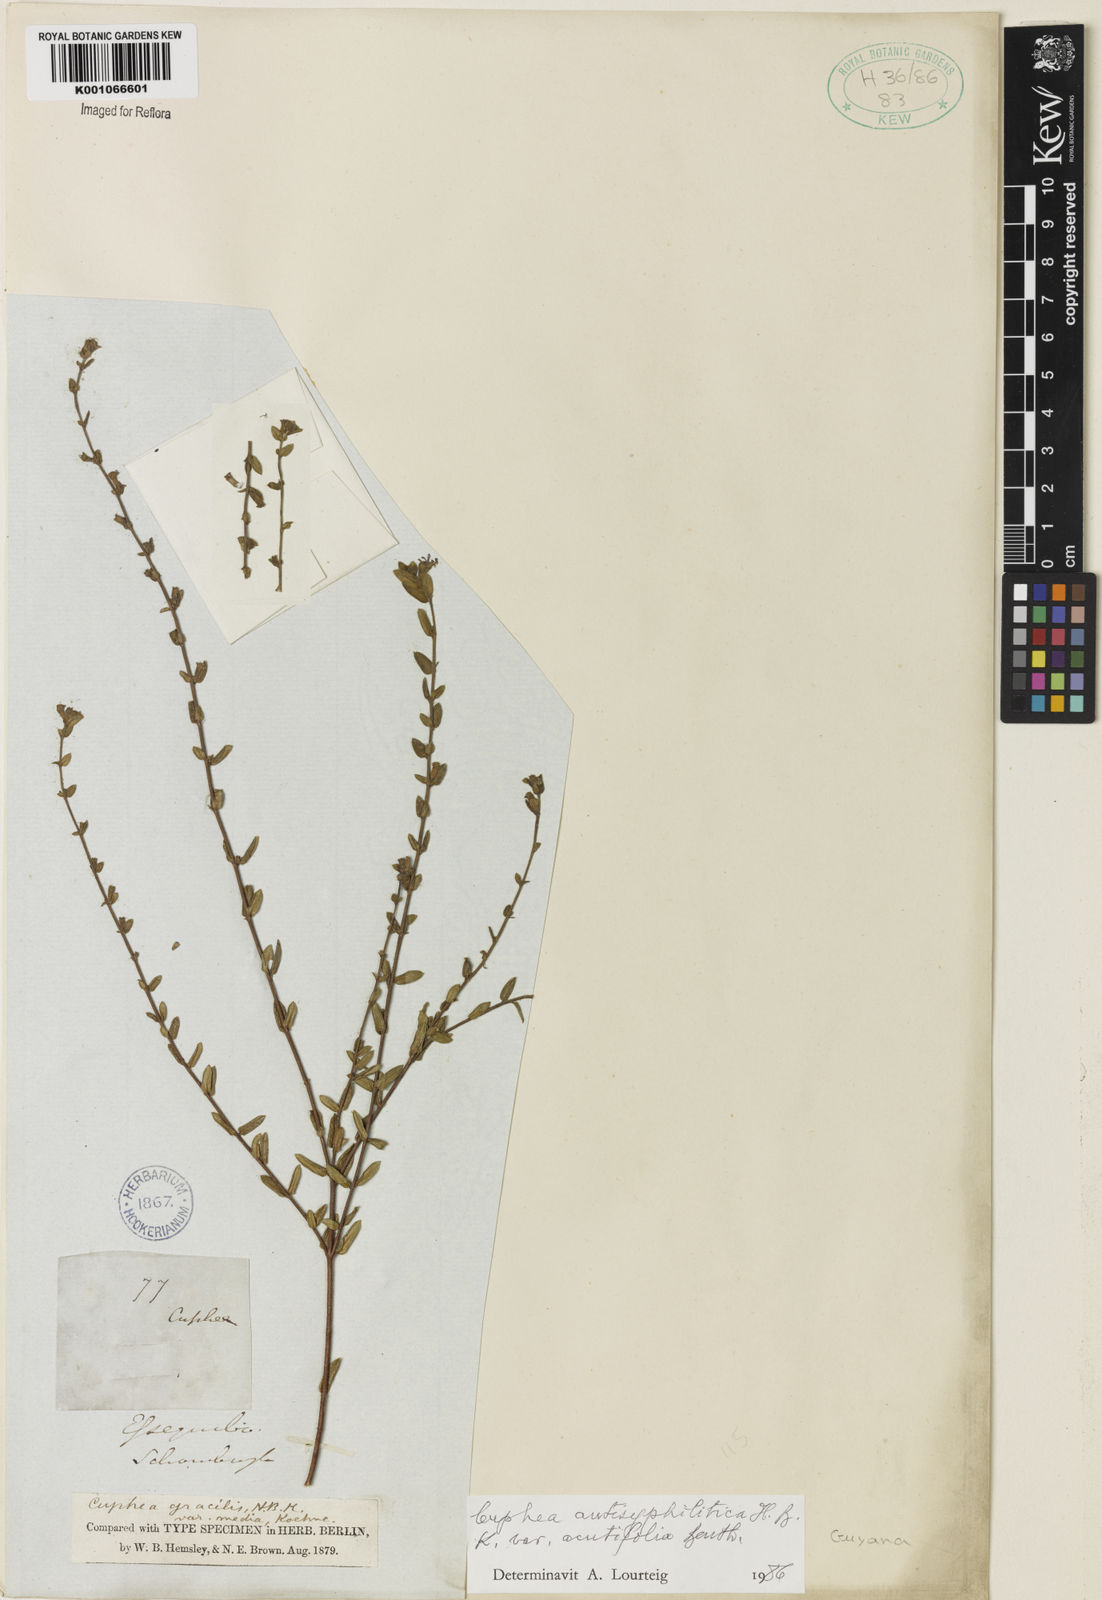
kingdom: Plantae
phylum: Tracheophyta
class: Magnoliopsida
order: Myrtales
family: Lythraceae
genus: Cuphea
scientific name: Cuphea antisyphilitica
